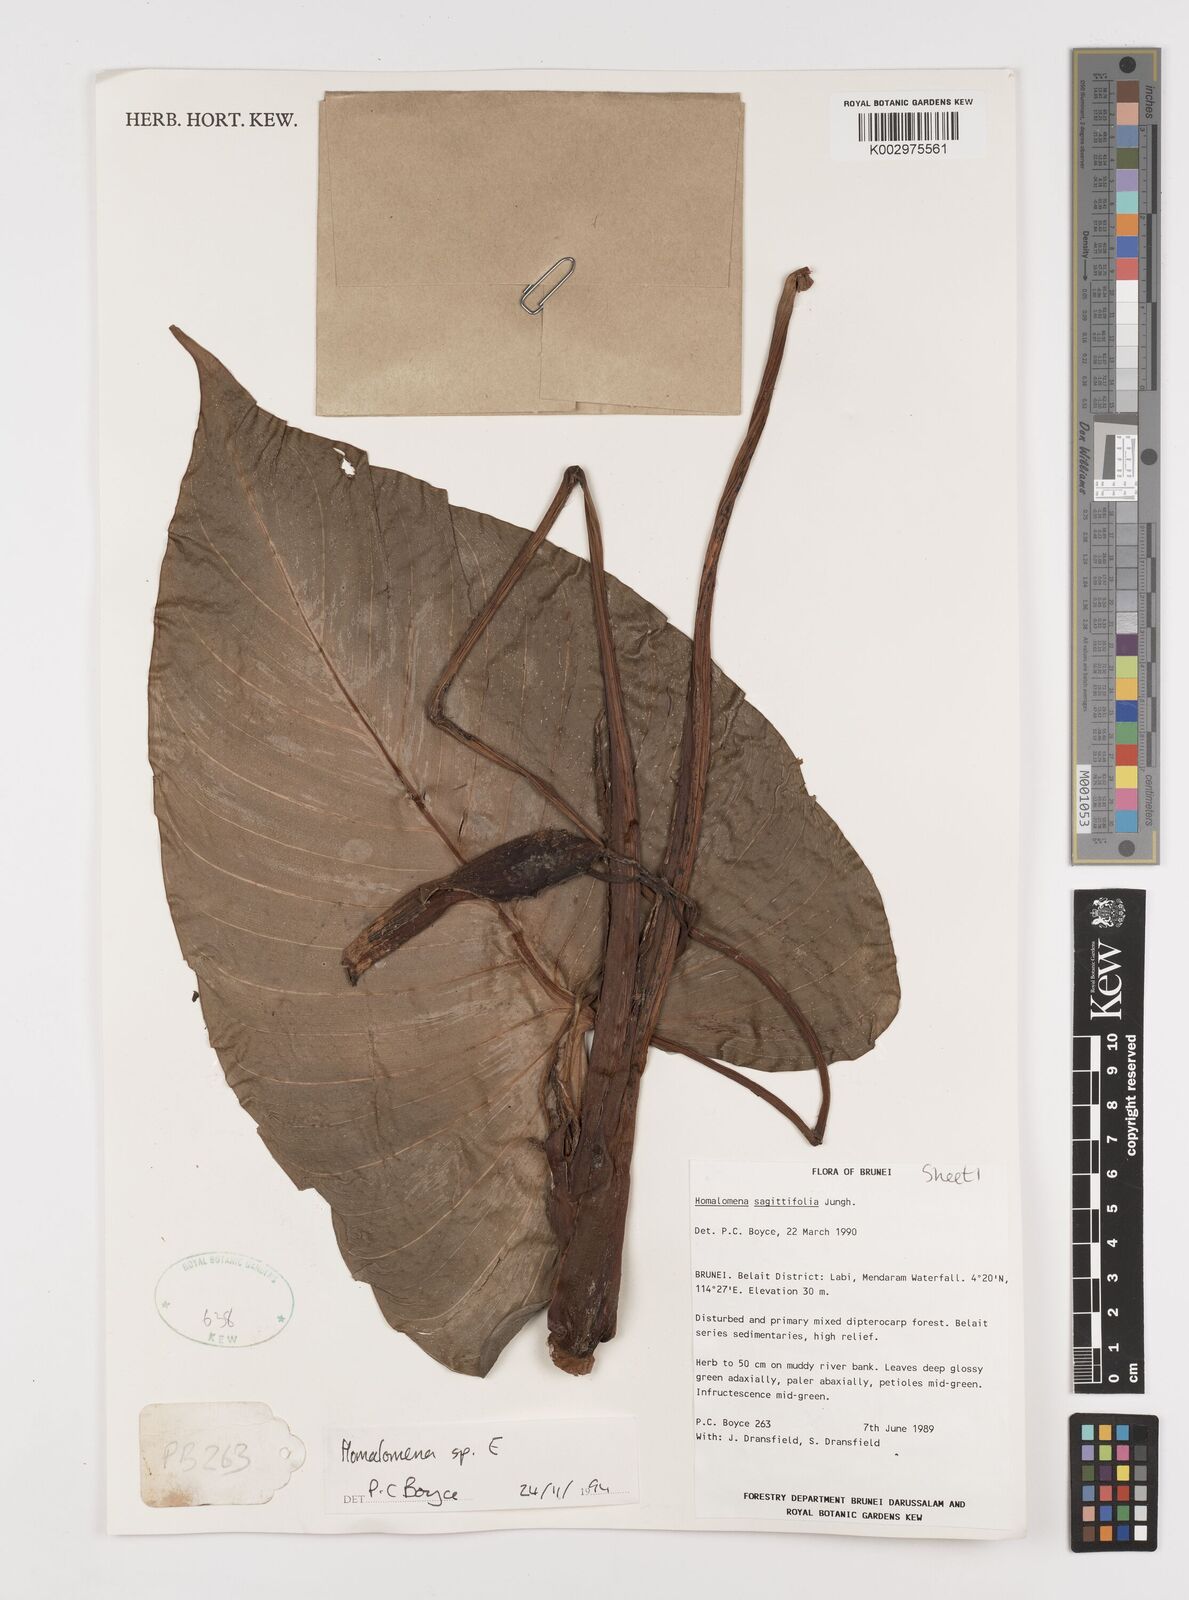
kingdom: Plantae
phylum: Tracheophyta
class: Liliopsida
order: Alismatales
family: Araceae
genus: Homalomena
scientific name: Homalomena
